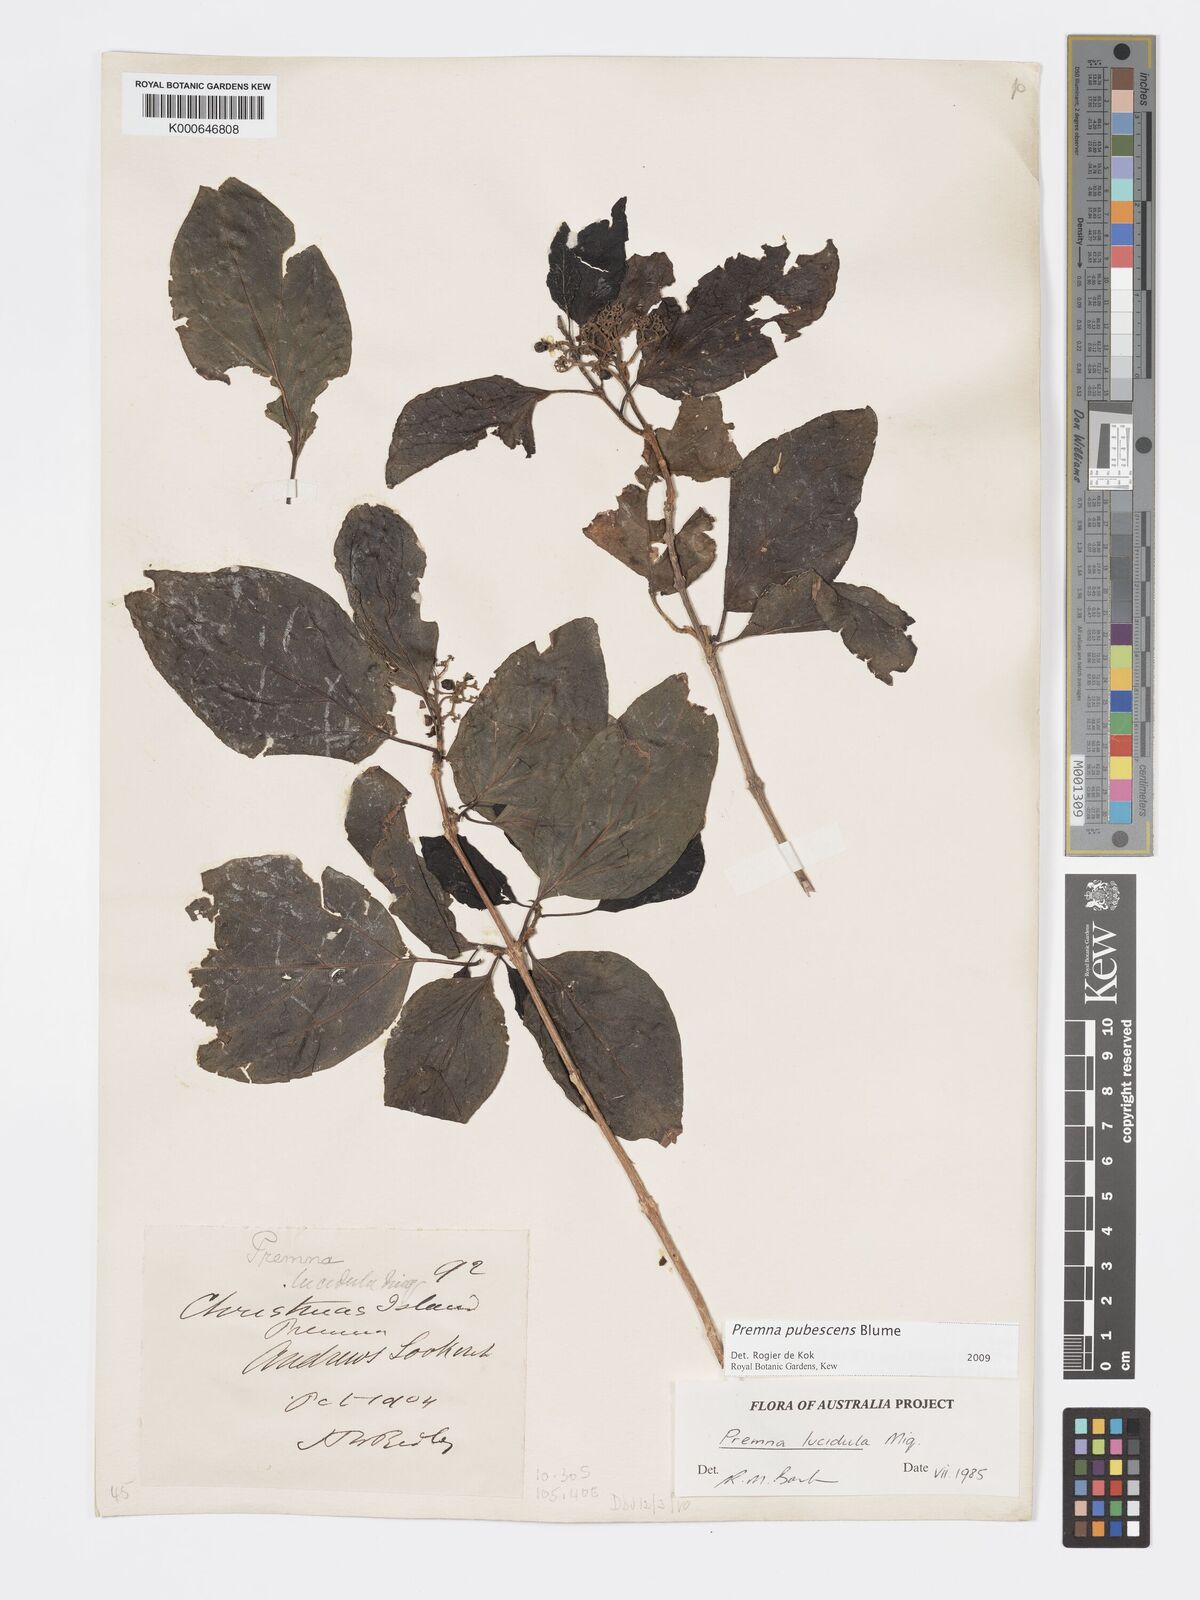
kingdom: Plantae
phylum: Tracheophyta
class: Magnoliopsida
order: Lamiales
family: Lamiaceae
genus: Premna
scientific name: Premna
